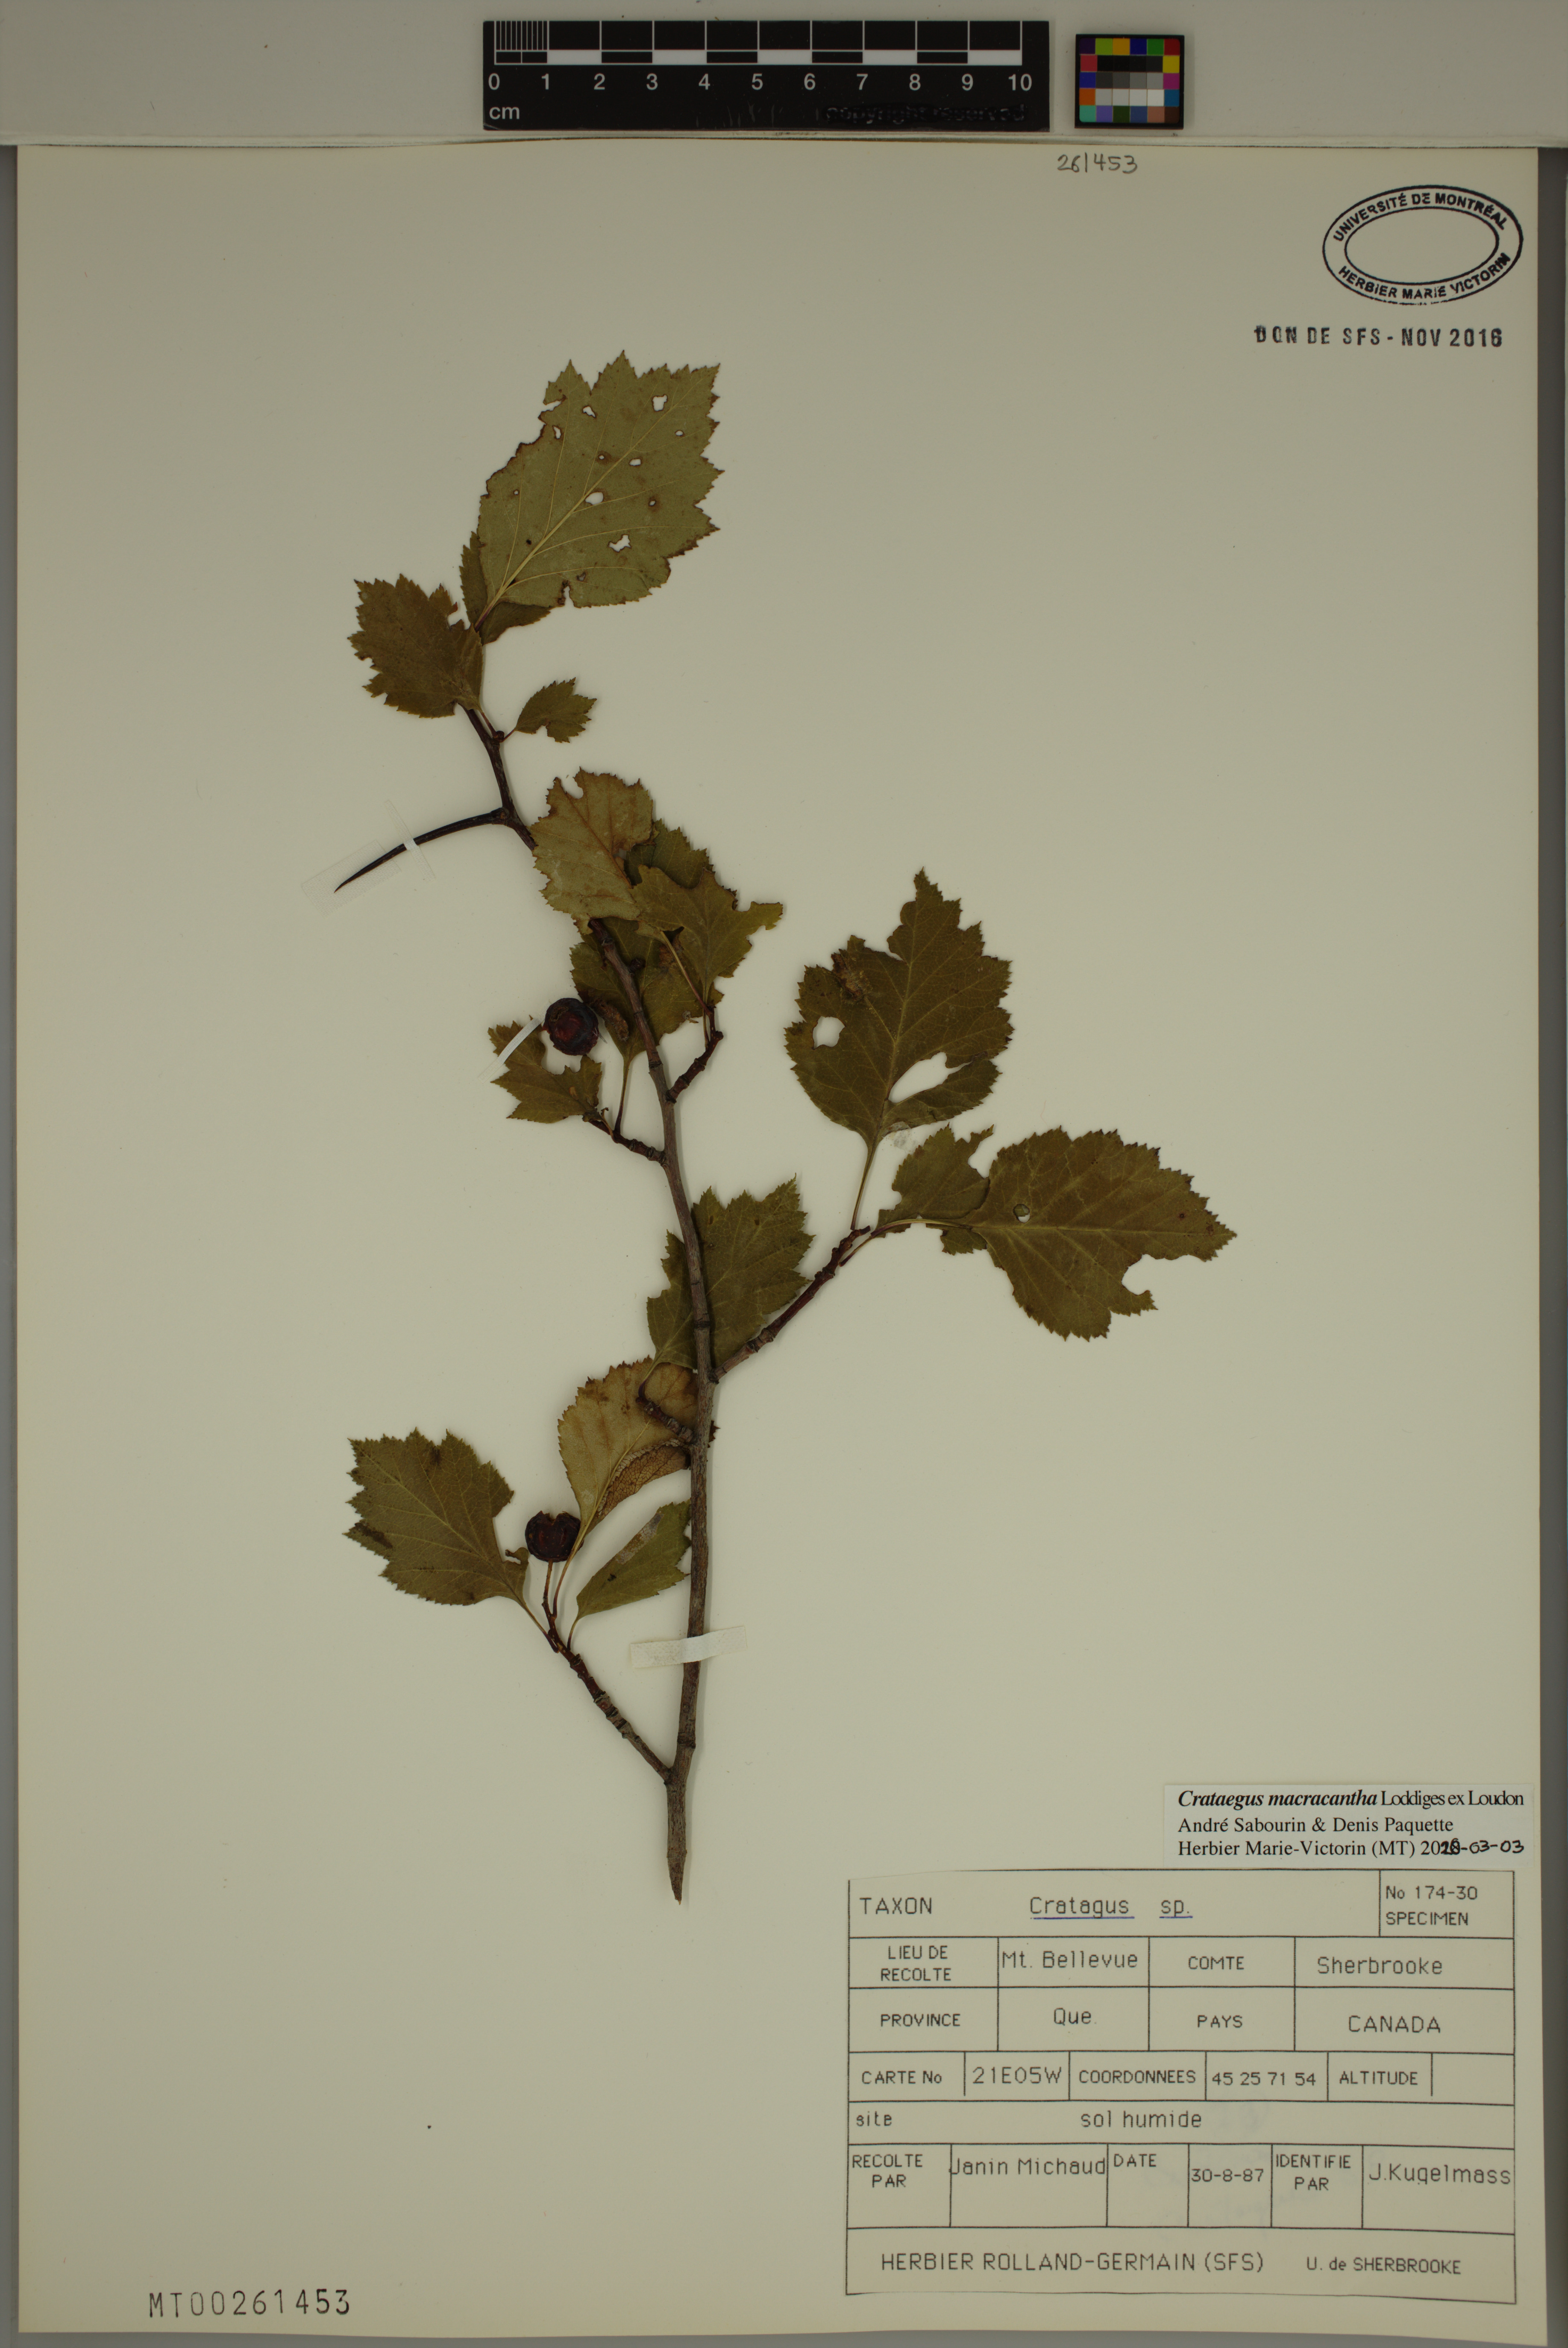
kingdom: Plantae
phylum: Tracheophyta
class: Magnoliopsida
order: Rosales
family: Rosaceae
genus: Crataegus
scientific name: Crataegus macracantha
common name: Large-thorn hawthorn
